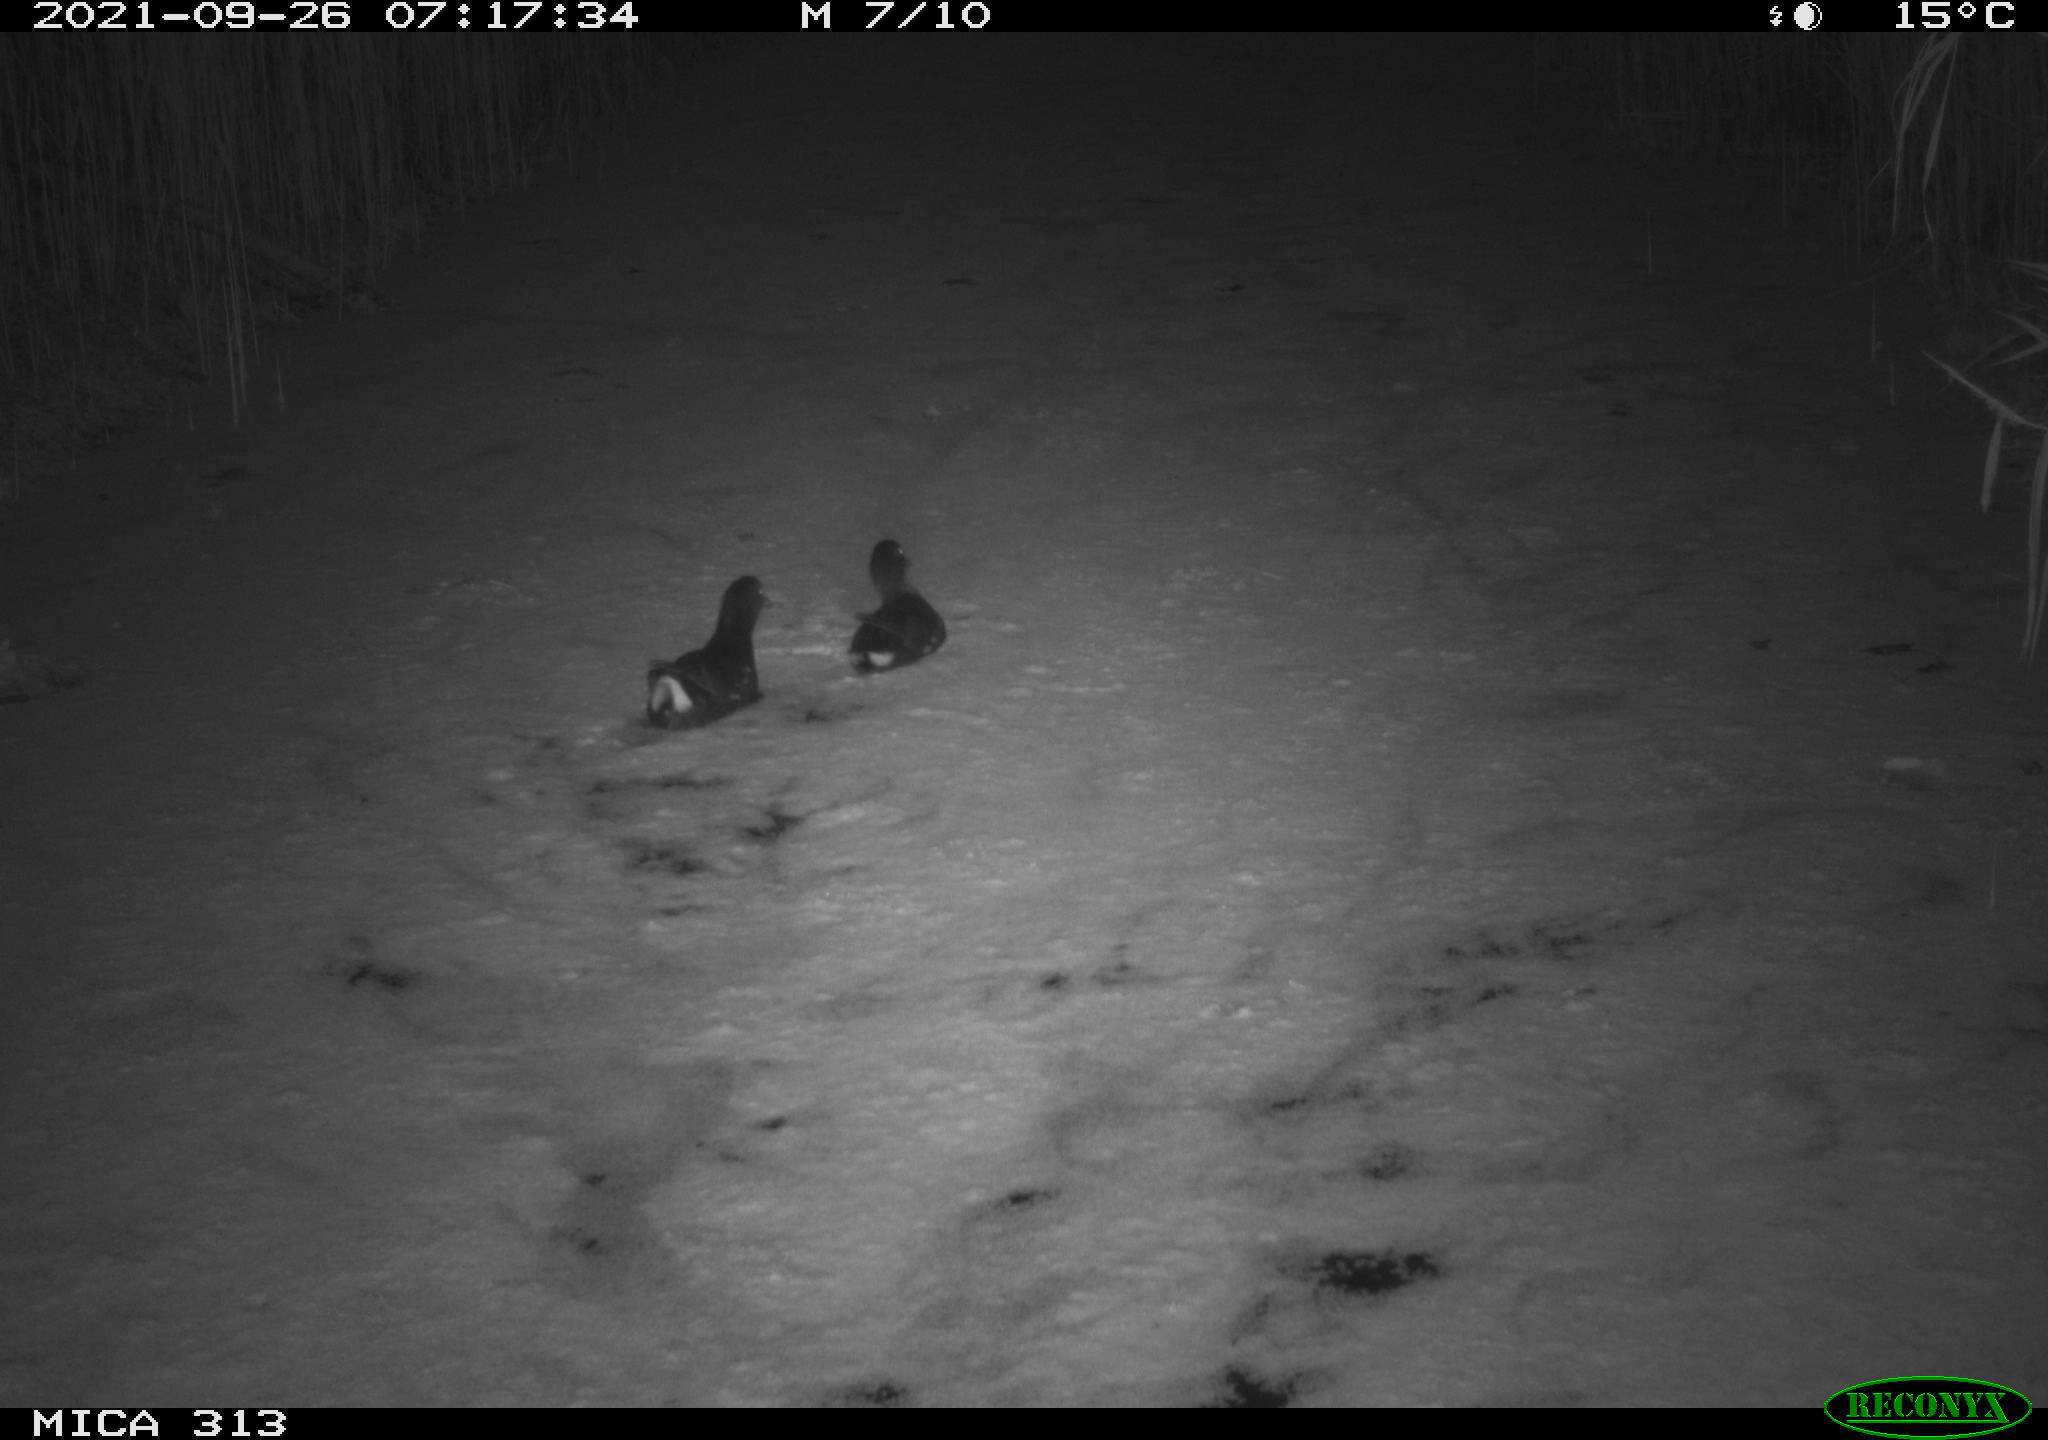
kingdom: Animalia
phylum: Chordata
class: Aves
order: Gruiformes
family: Rallidae
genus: Gallinula
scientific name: Gallinula chloropus
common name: Common moorhen
